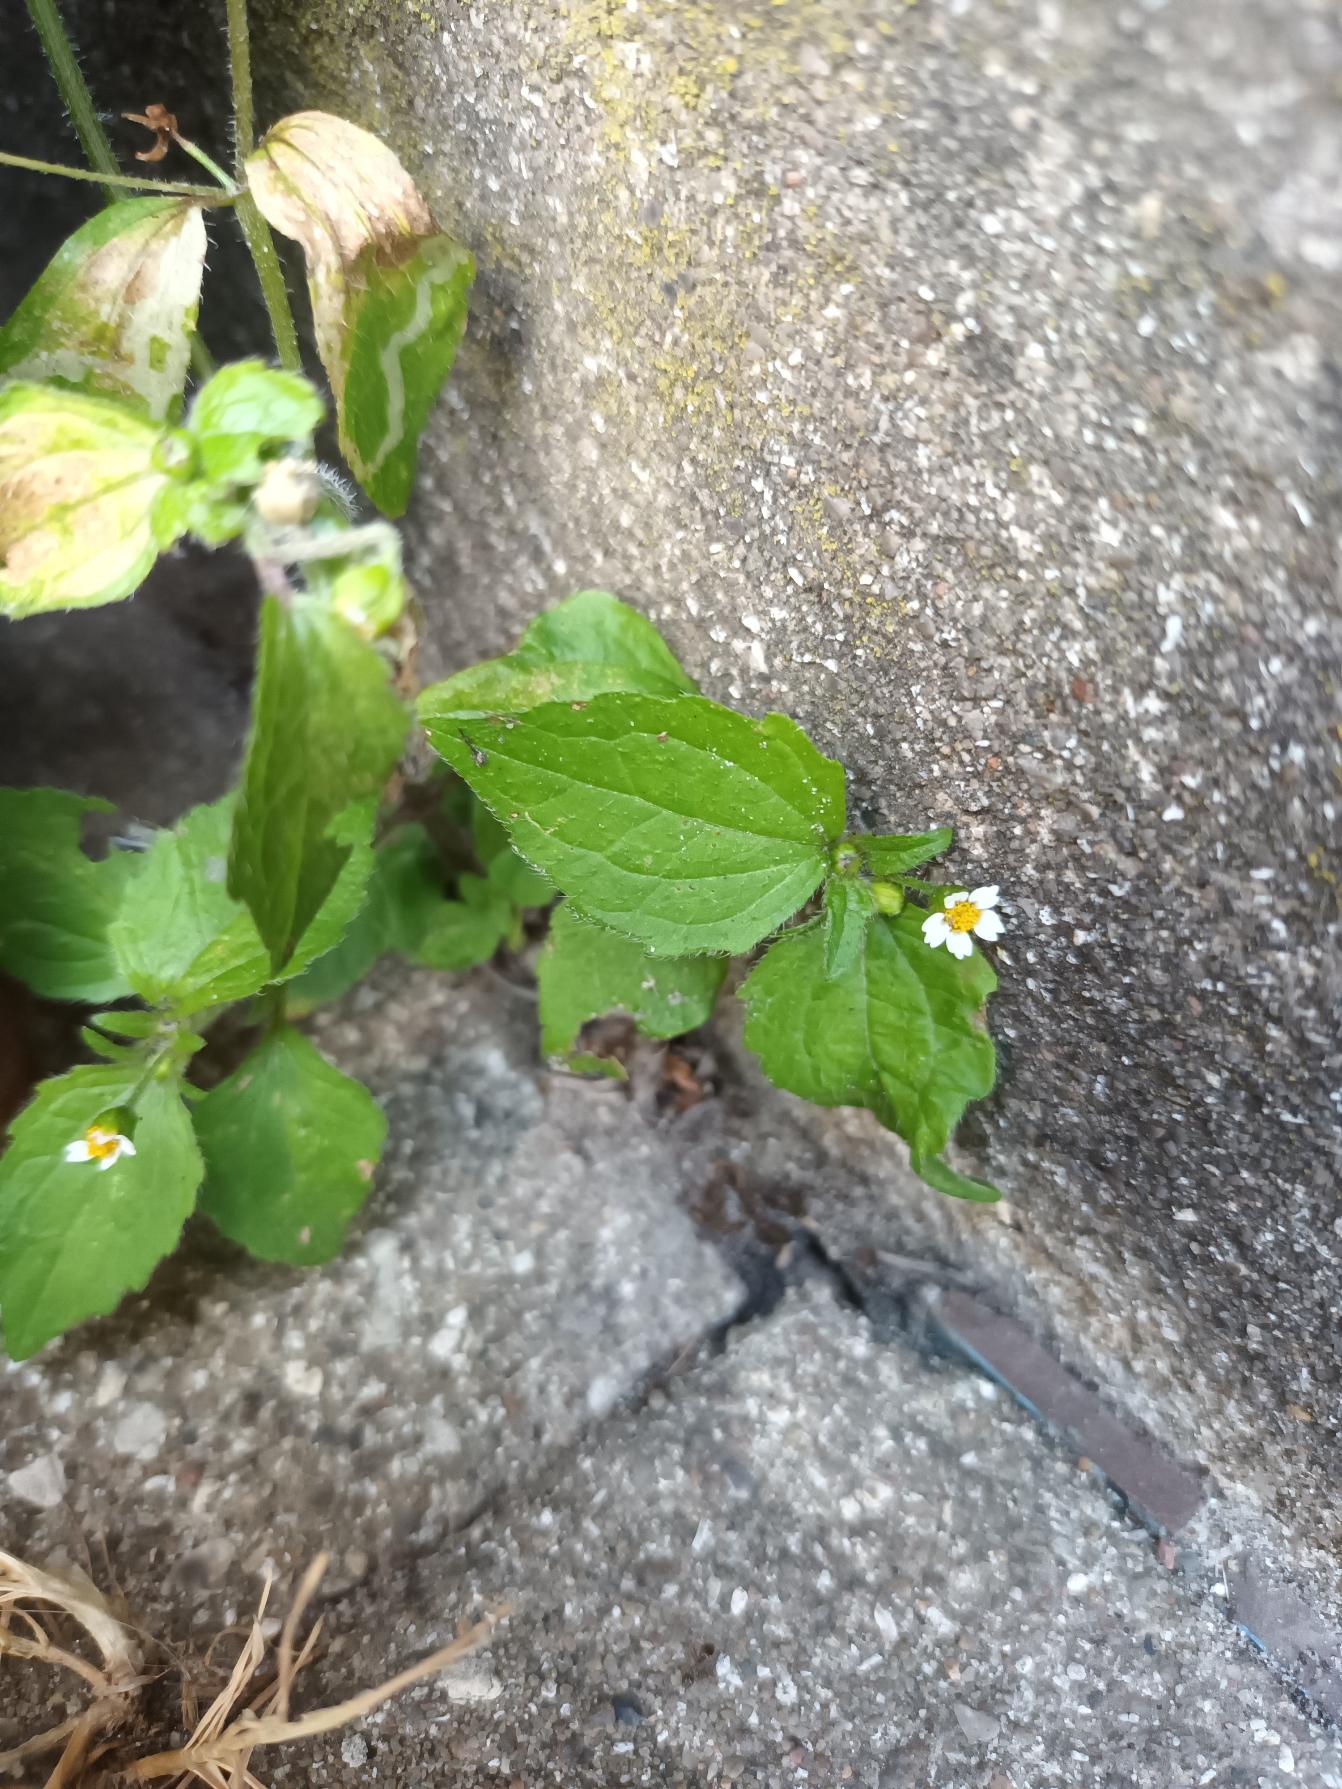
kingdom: Plantae
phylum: Tracheophyta
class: Magnoliopsida
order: Asterales
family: Asteraceae
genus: Galinsoga
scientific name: Galinsoga quadriradiata
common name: Kirtel-kortstråle
